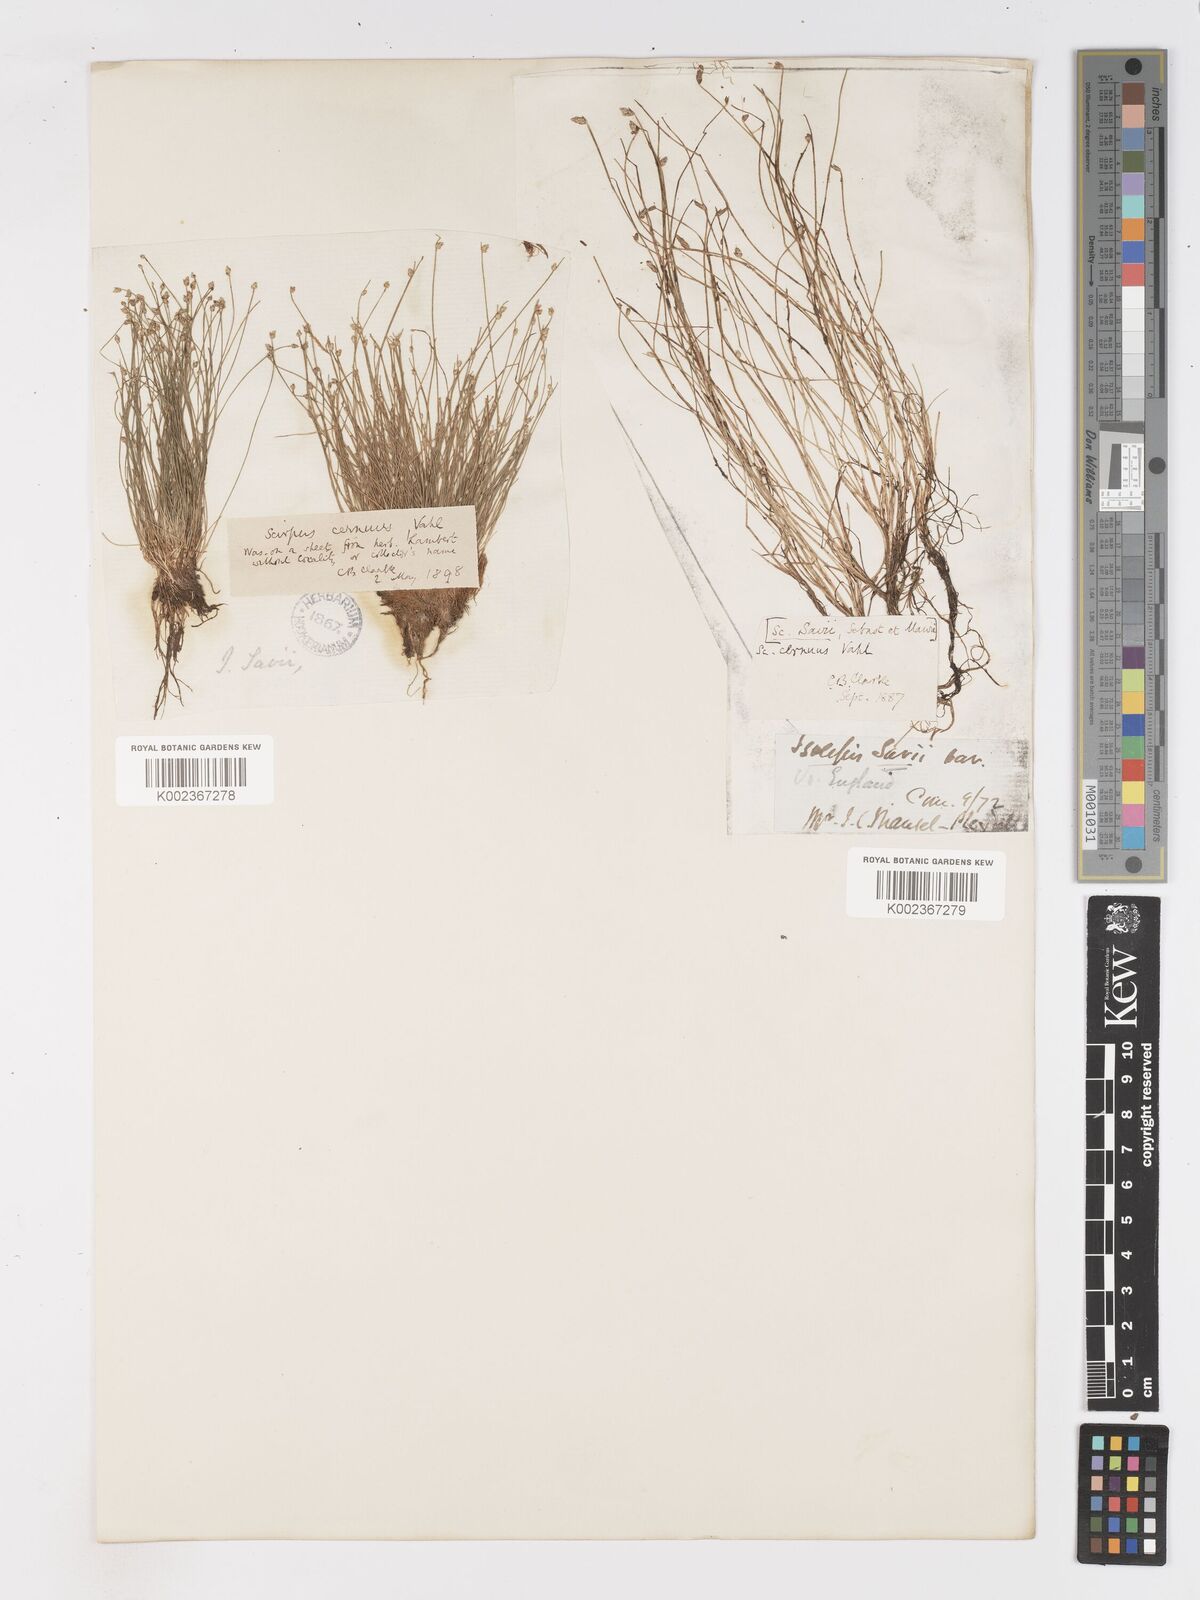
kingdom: Plantae
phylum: Tracheophyta
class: Liliopsida
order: Poales
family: Cyperaceae
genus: Isolepis
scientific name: Isolepis cernua
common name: Slender club-rush
